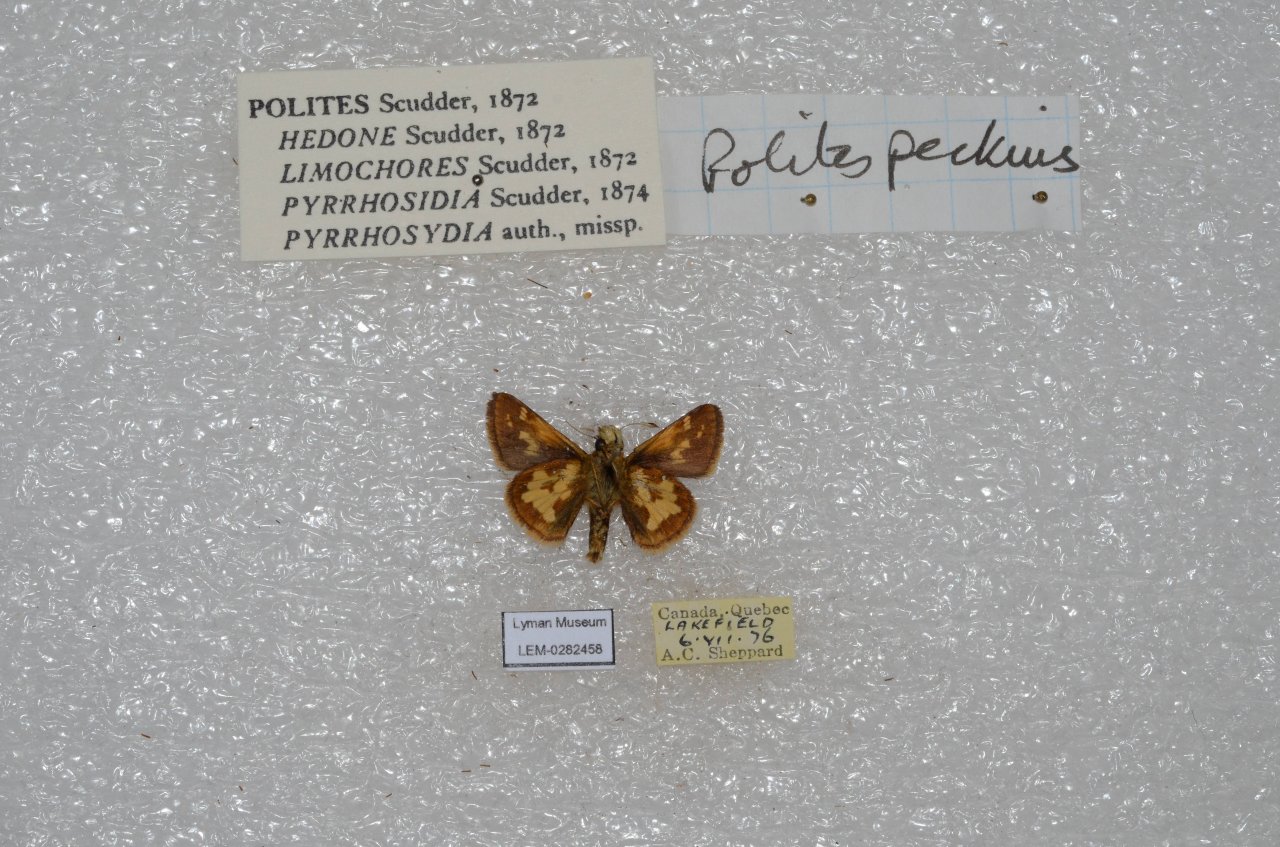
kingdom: Animalia
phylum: Arthropoda
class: Insecta
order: Lepidoptera
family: Hesperiidae
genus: Polites
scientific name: Polites coras
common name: Peck's Skipper
